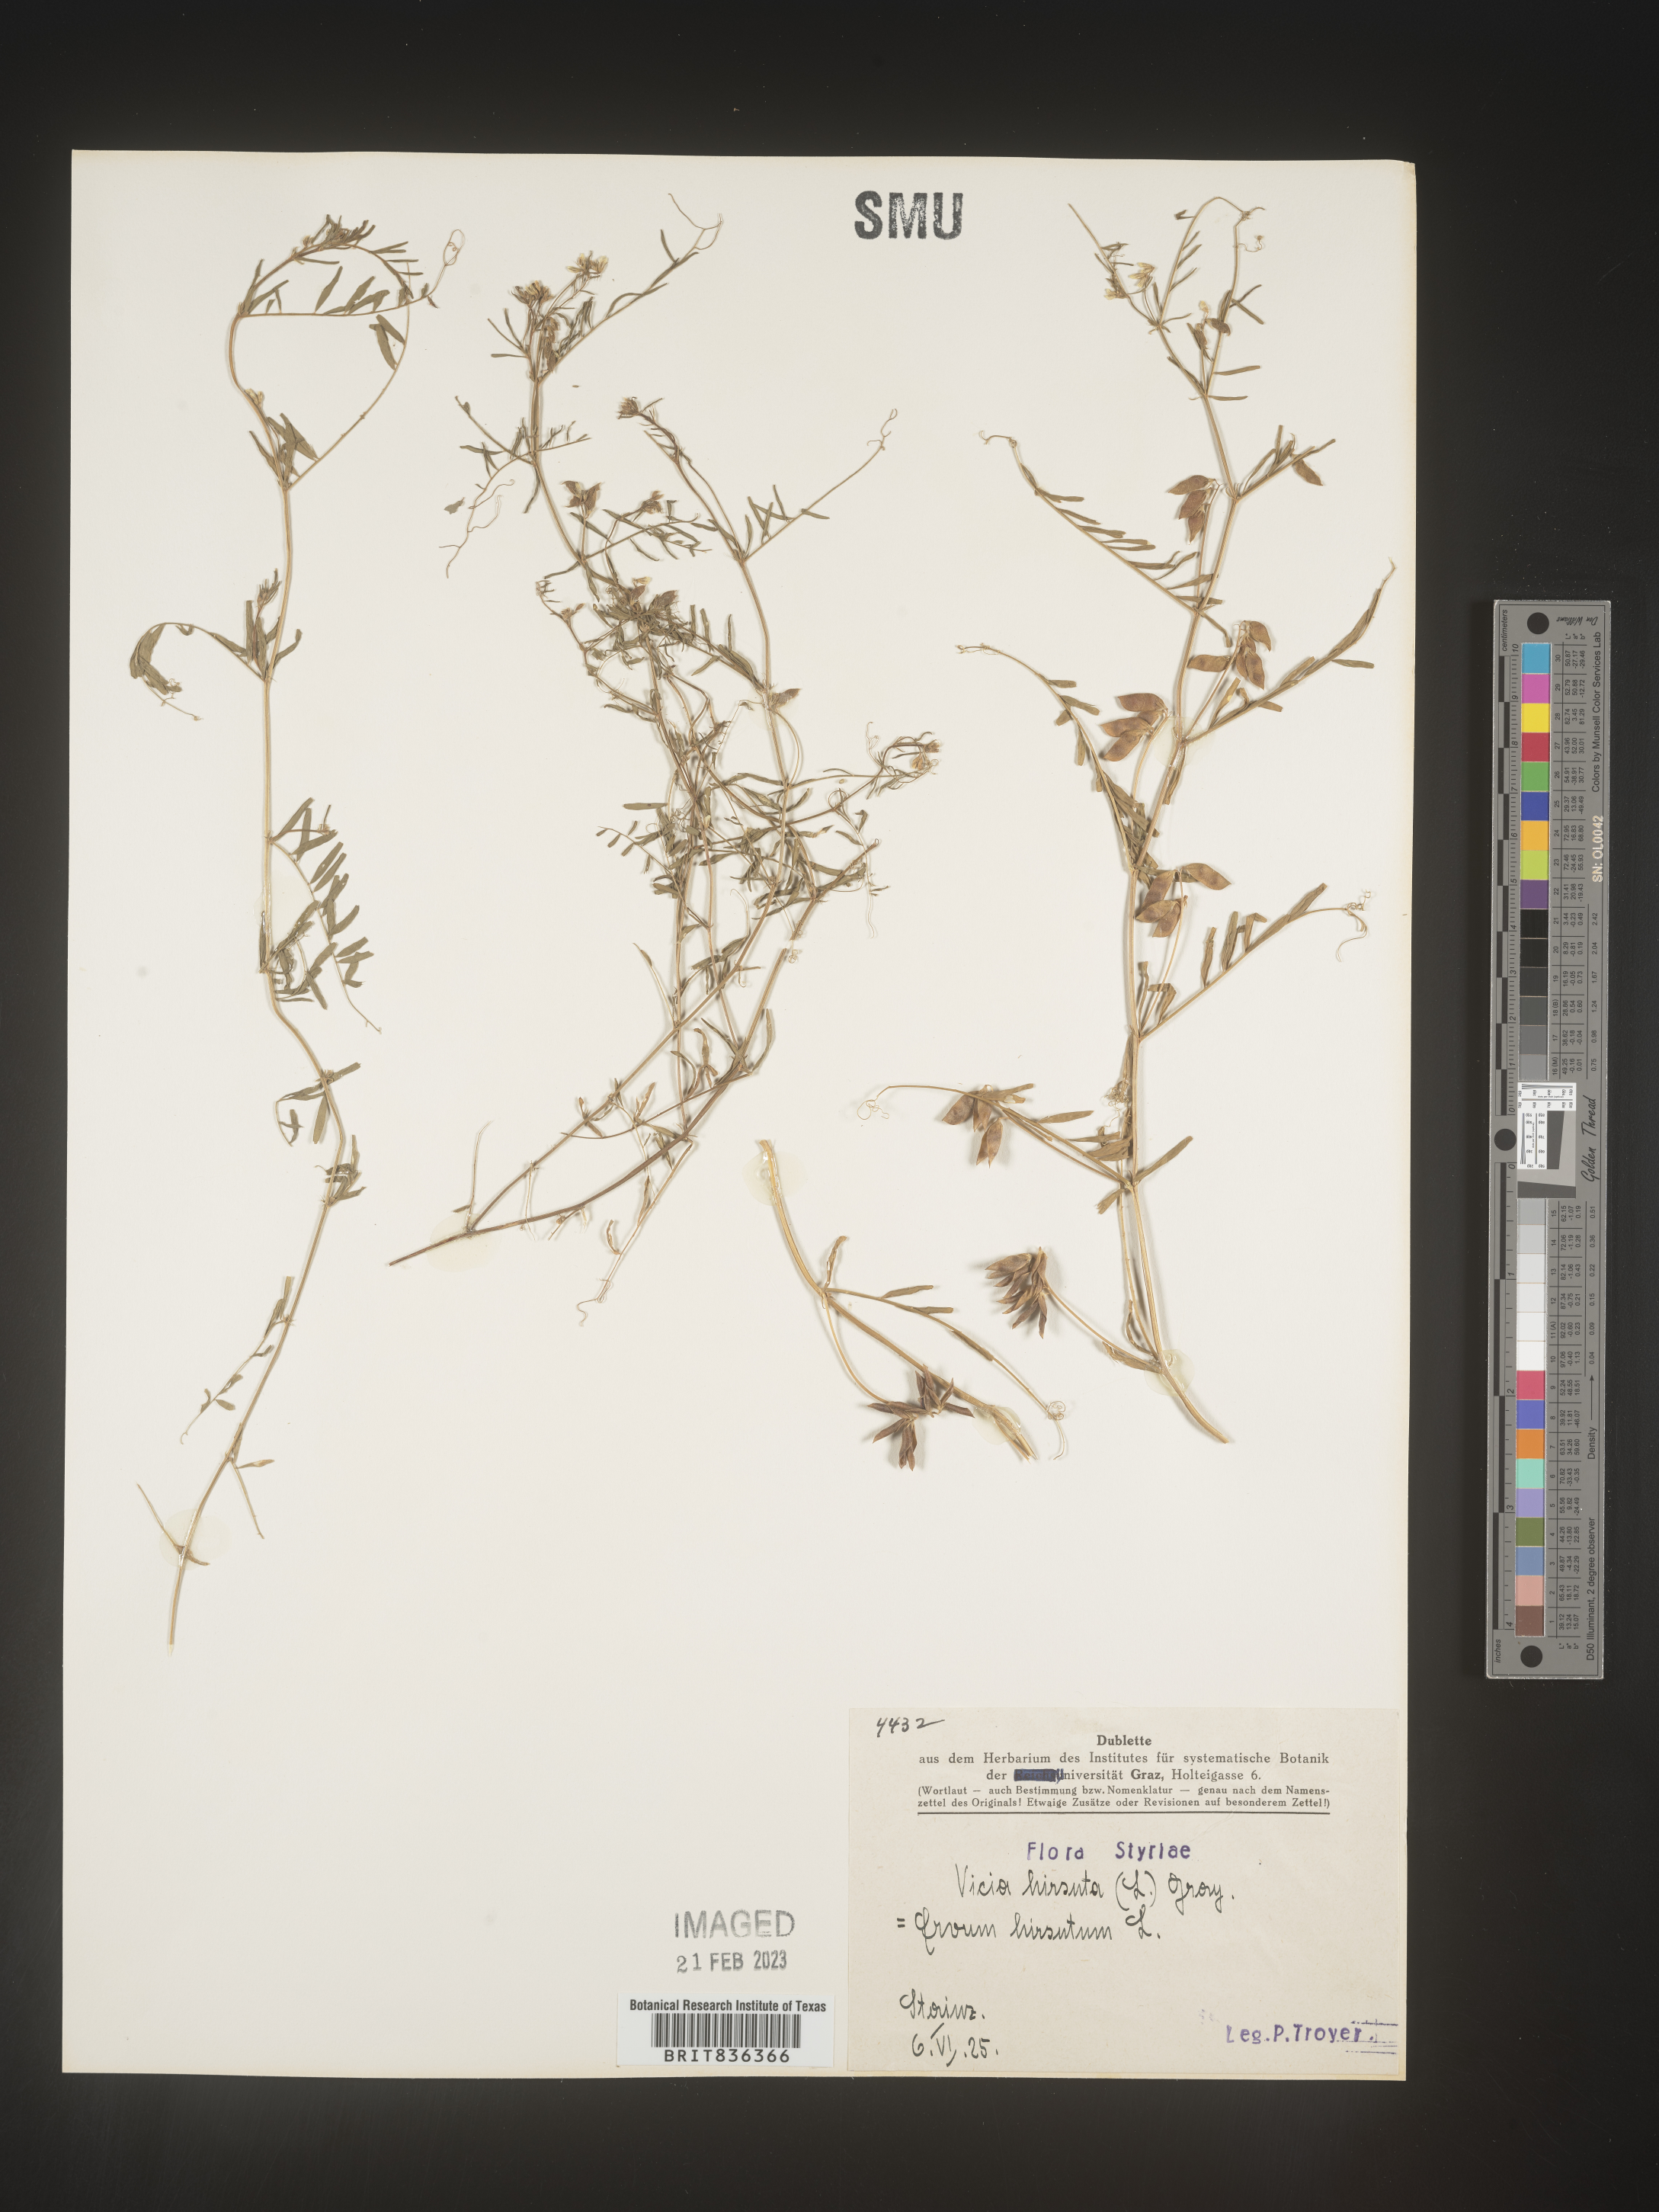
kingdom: Plantae
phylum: Tracheophyta
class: Magnoliopsida
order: Fabales
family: Fabaceae
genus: Vicia
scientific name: Vicia
